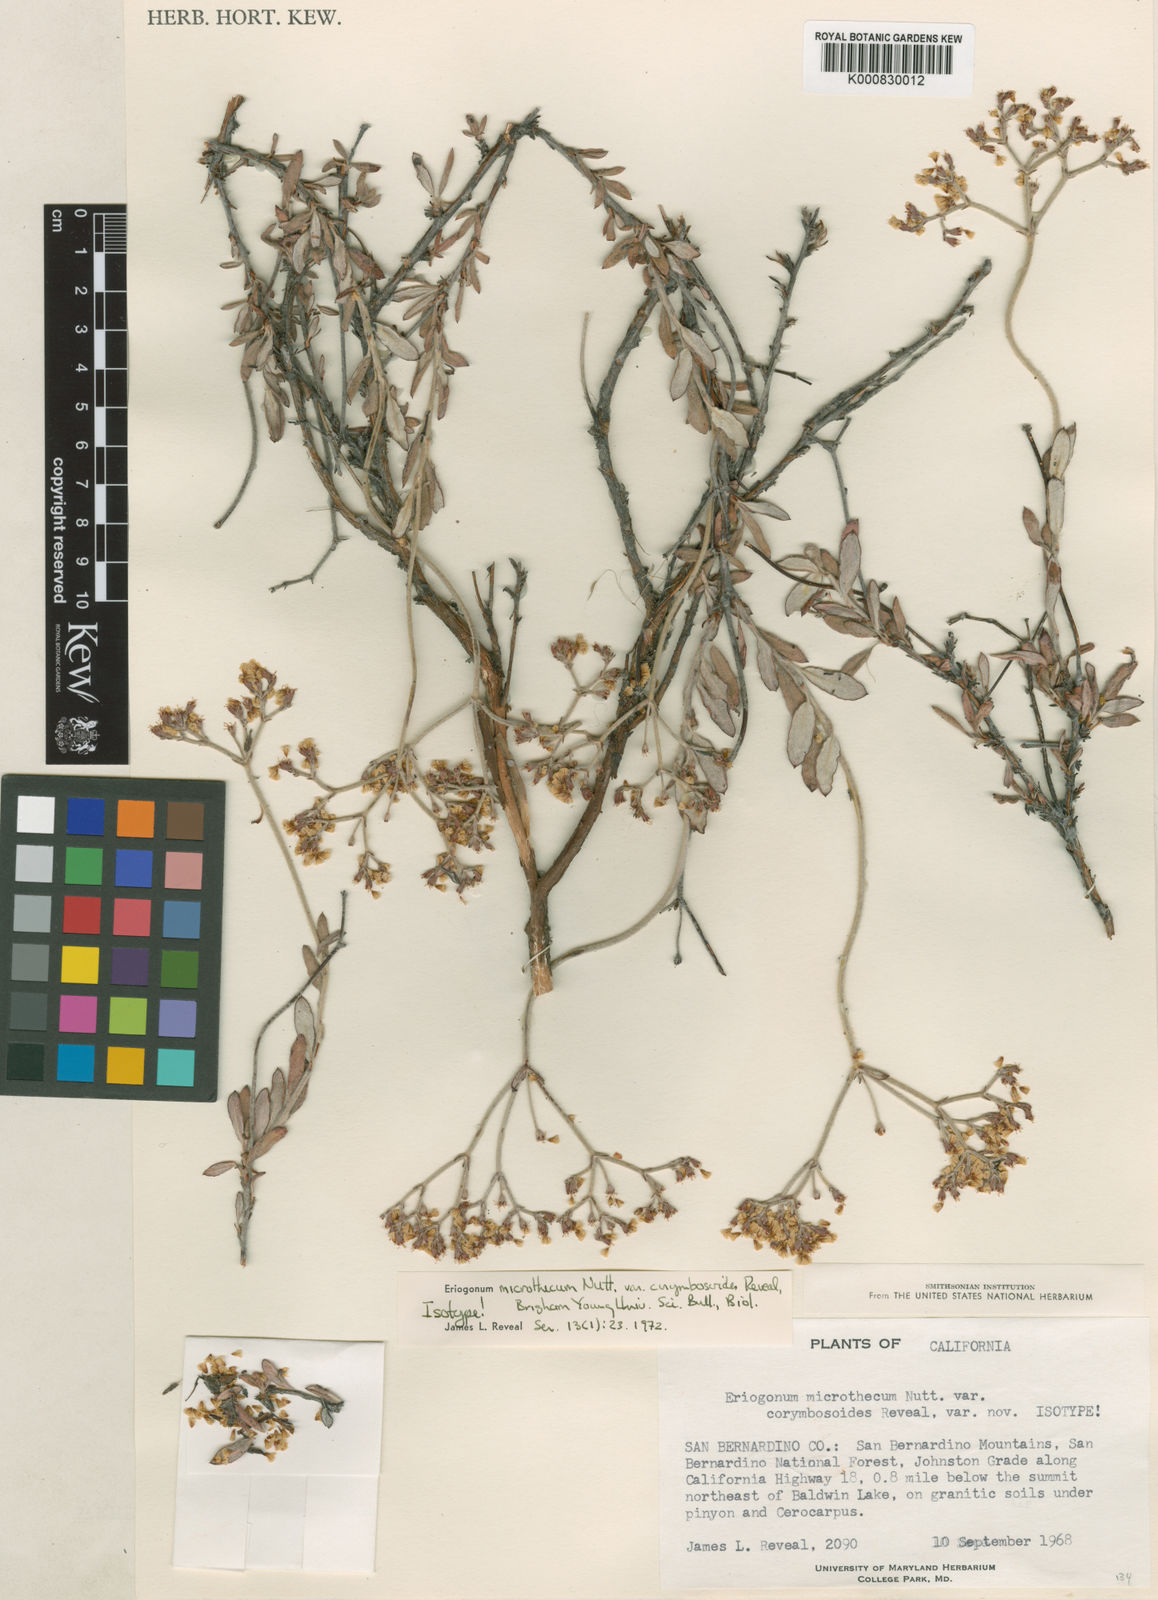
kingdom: Plantae
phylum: Tracheophyta
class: Magnoliopsida
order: Caryophyllales
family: Polygonaceae
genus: Eriogonum
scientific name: Eriogonum microtheca
